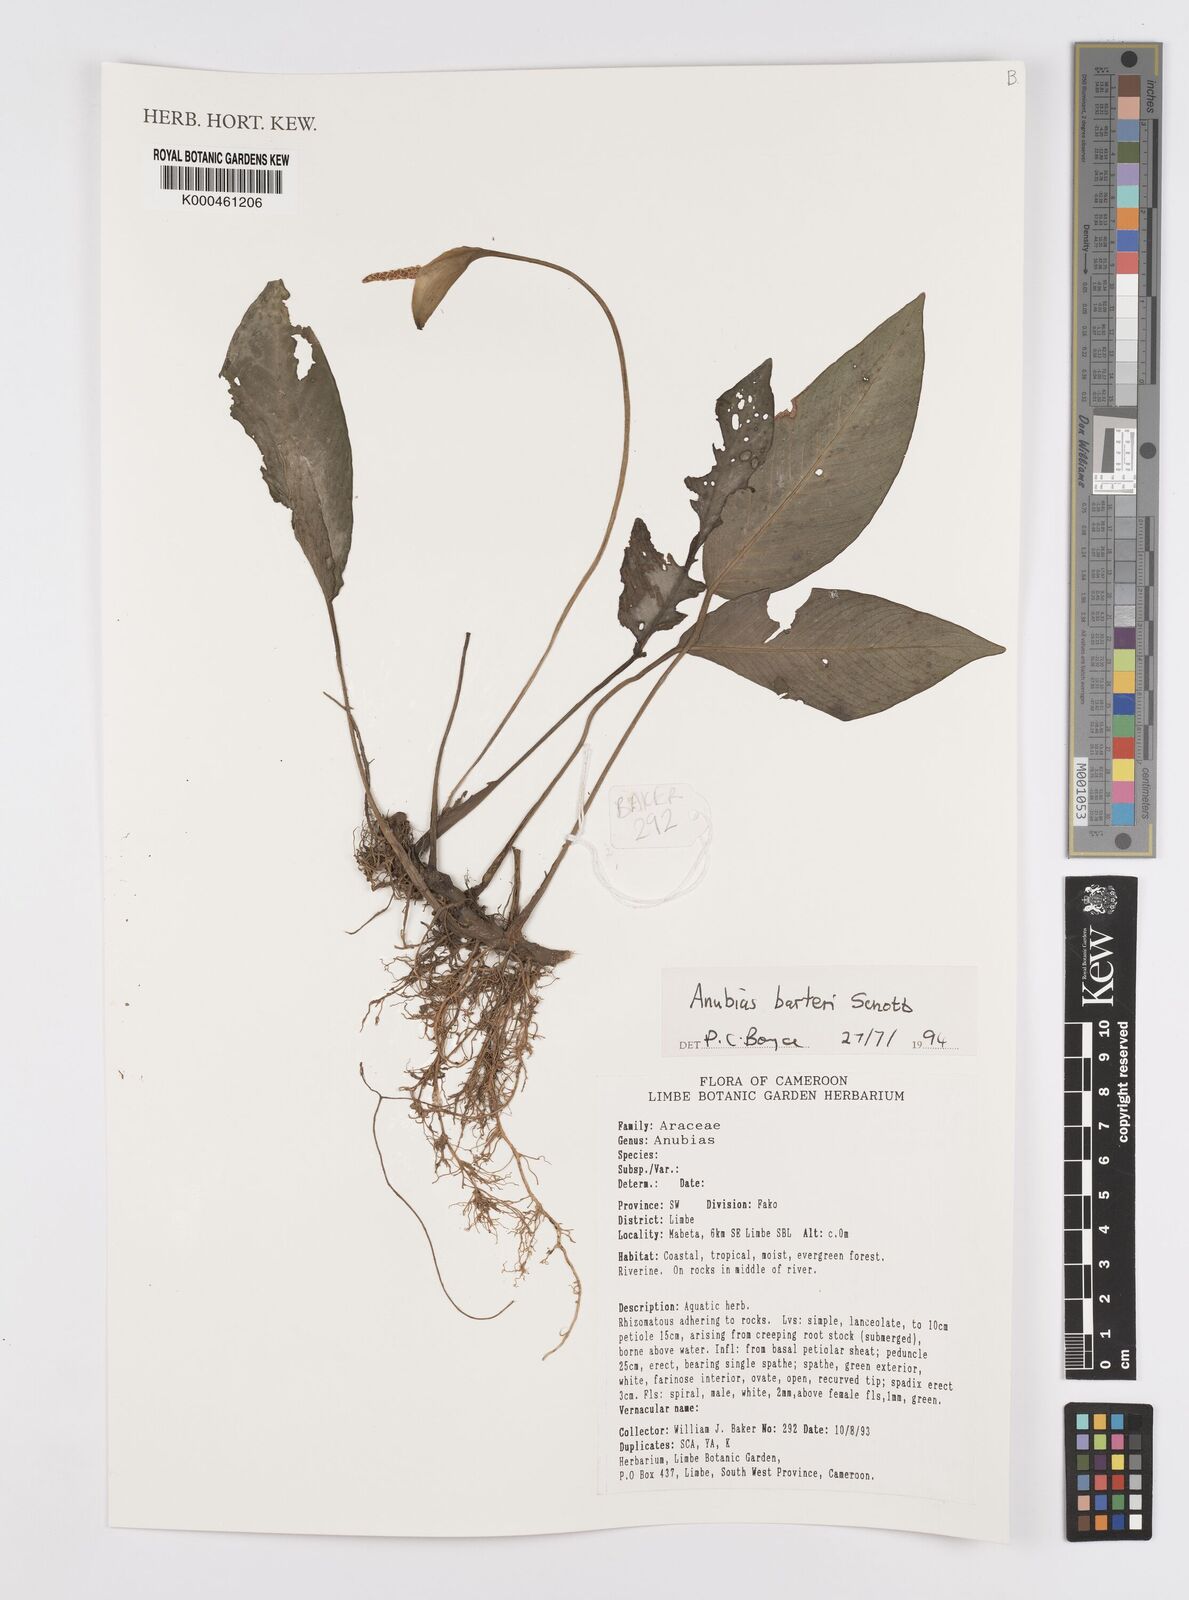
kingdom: Plantae
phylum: Tracheophyta
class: Liliopsida
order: Alismatales
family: Araceae
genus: Anubias
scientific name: Anubias barteri
